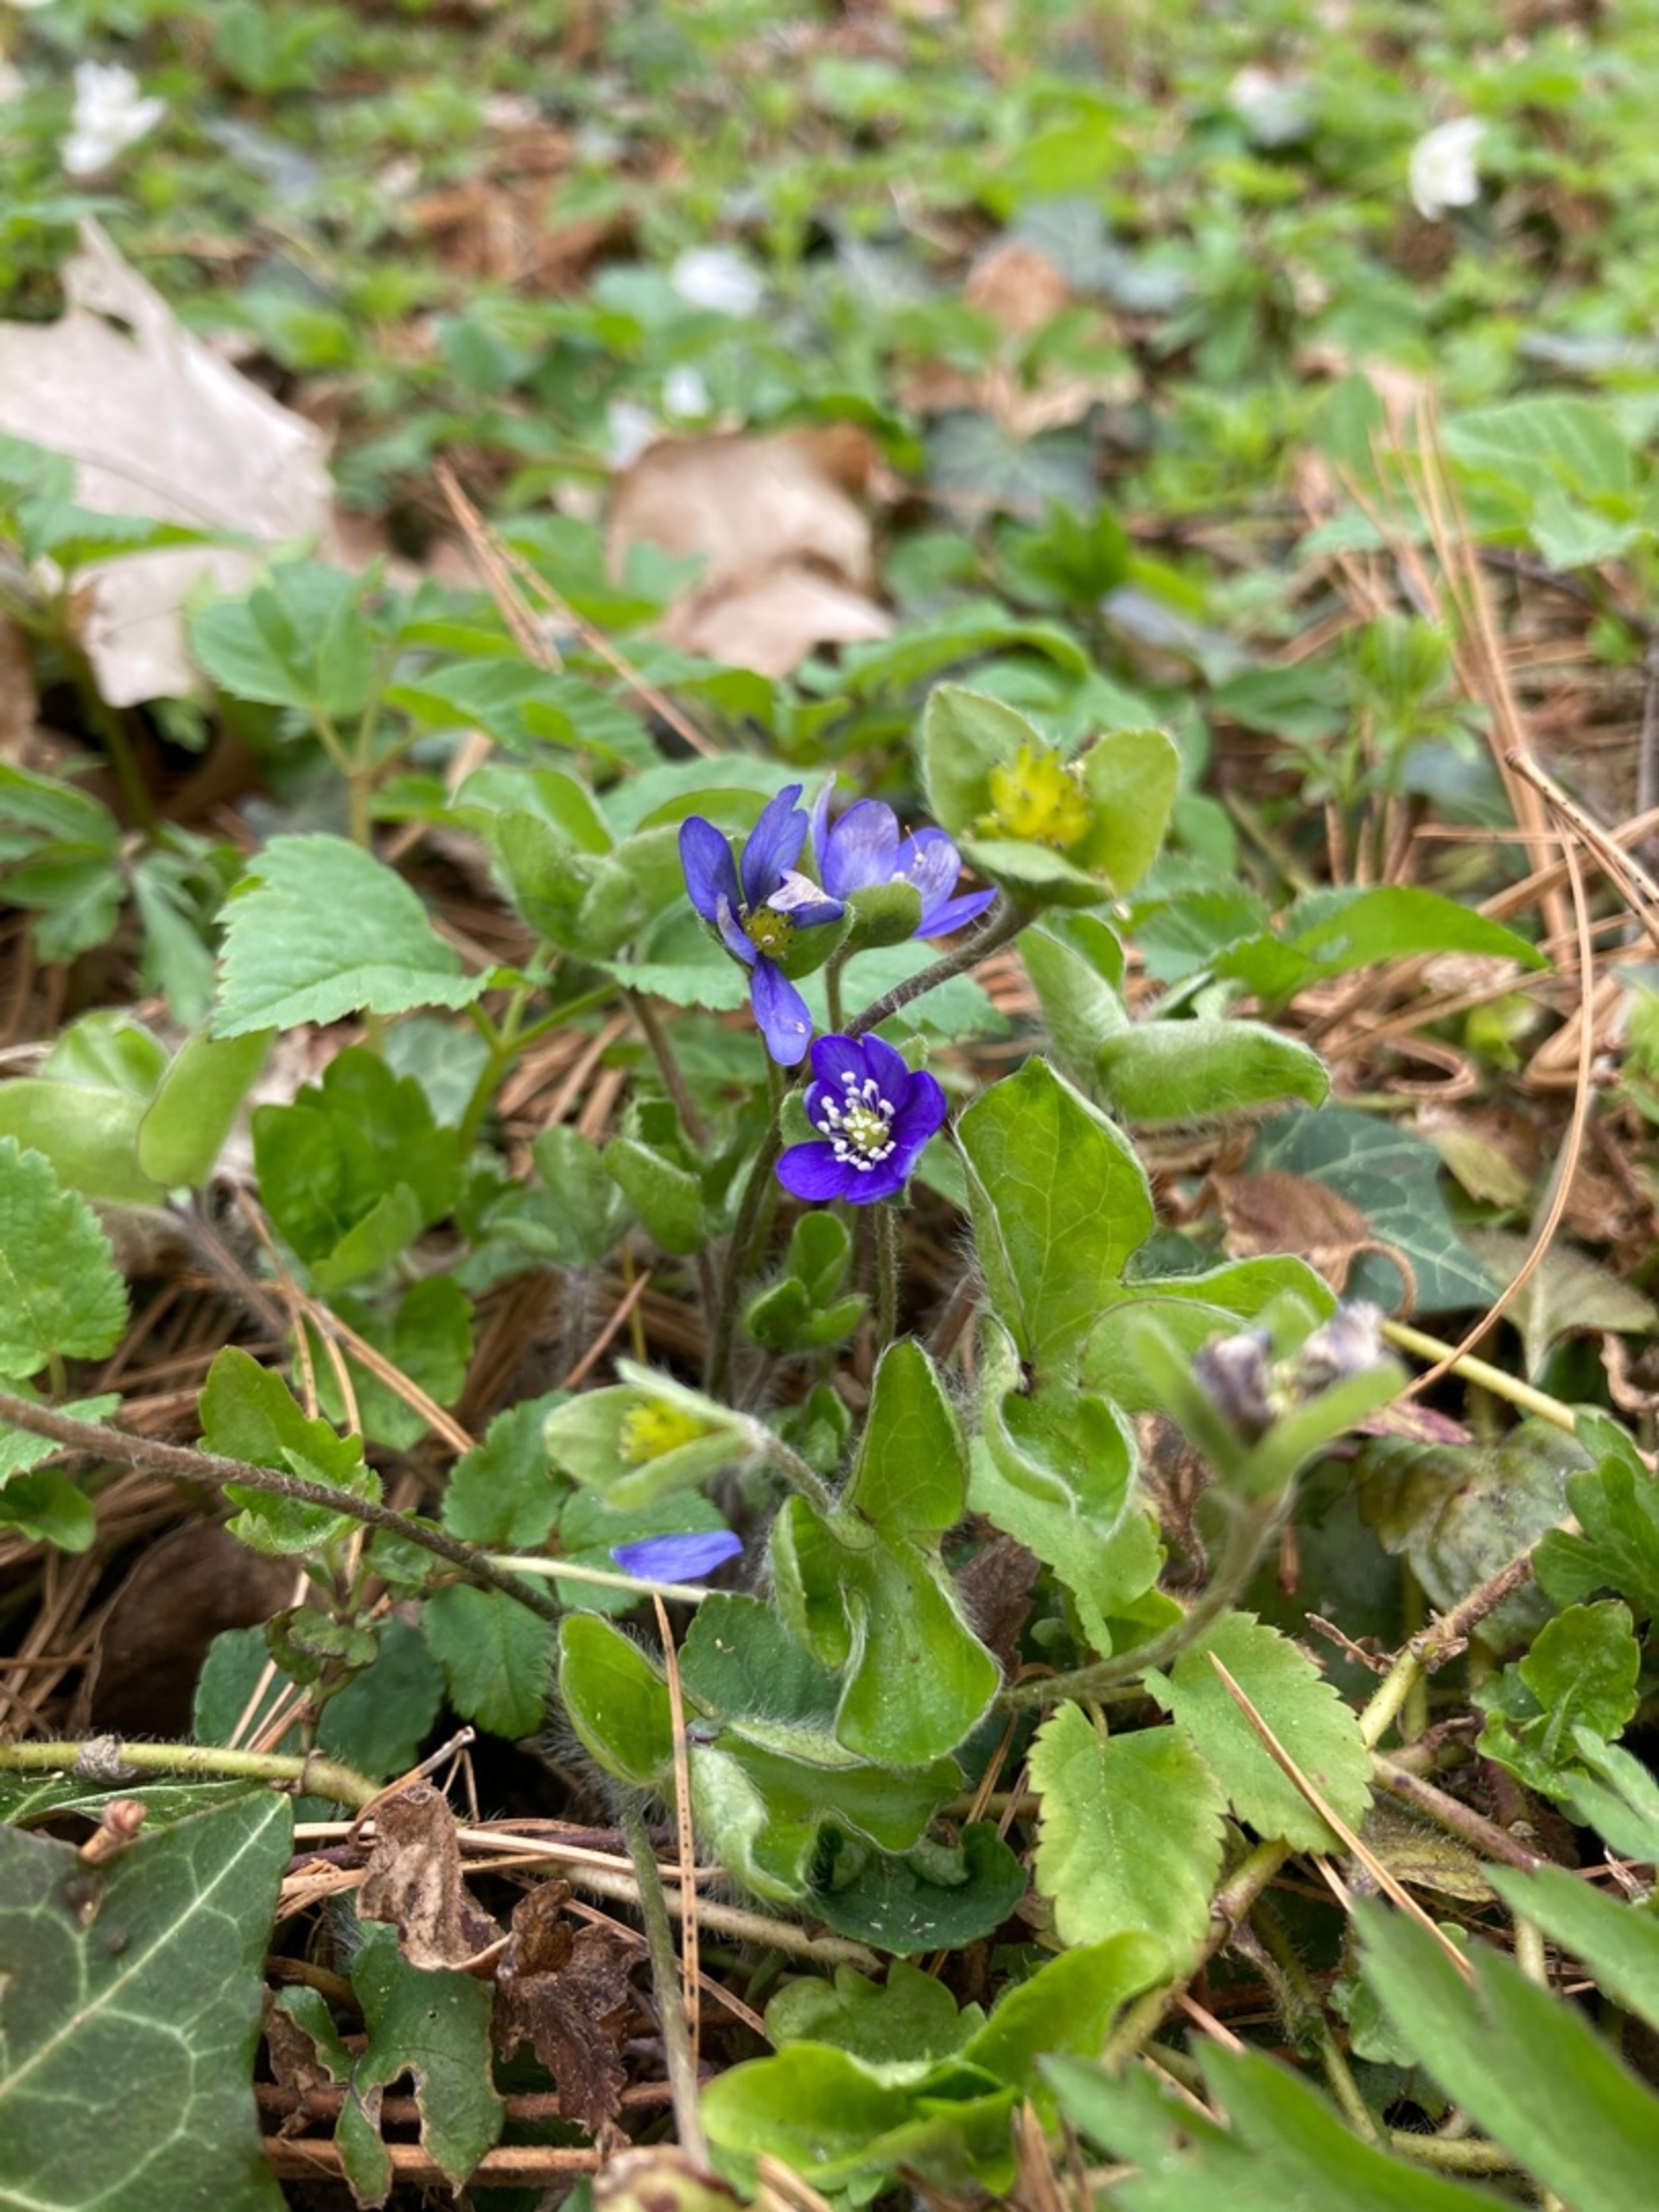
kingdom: Plantae
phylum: Tracheophyta
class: Magnoliopsida
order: Ranunculales
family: Ranunculaceae
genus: Hepatica
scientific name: Hepatica nobilis
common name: Blå anemone
